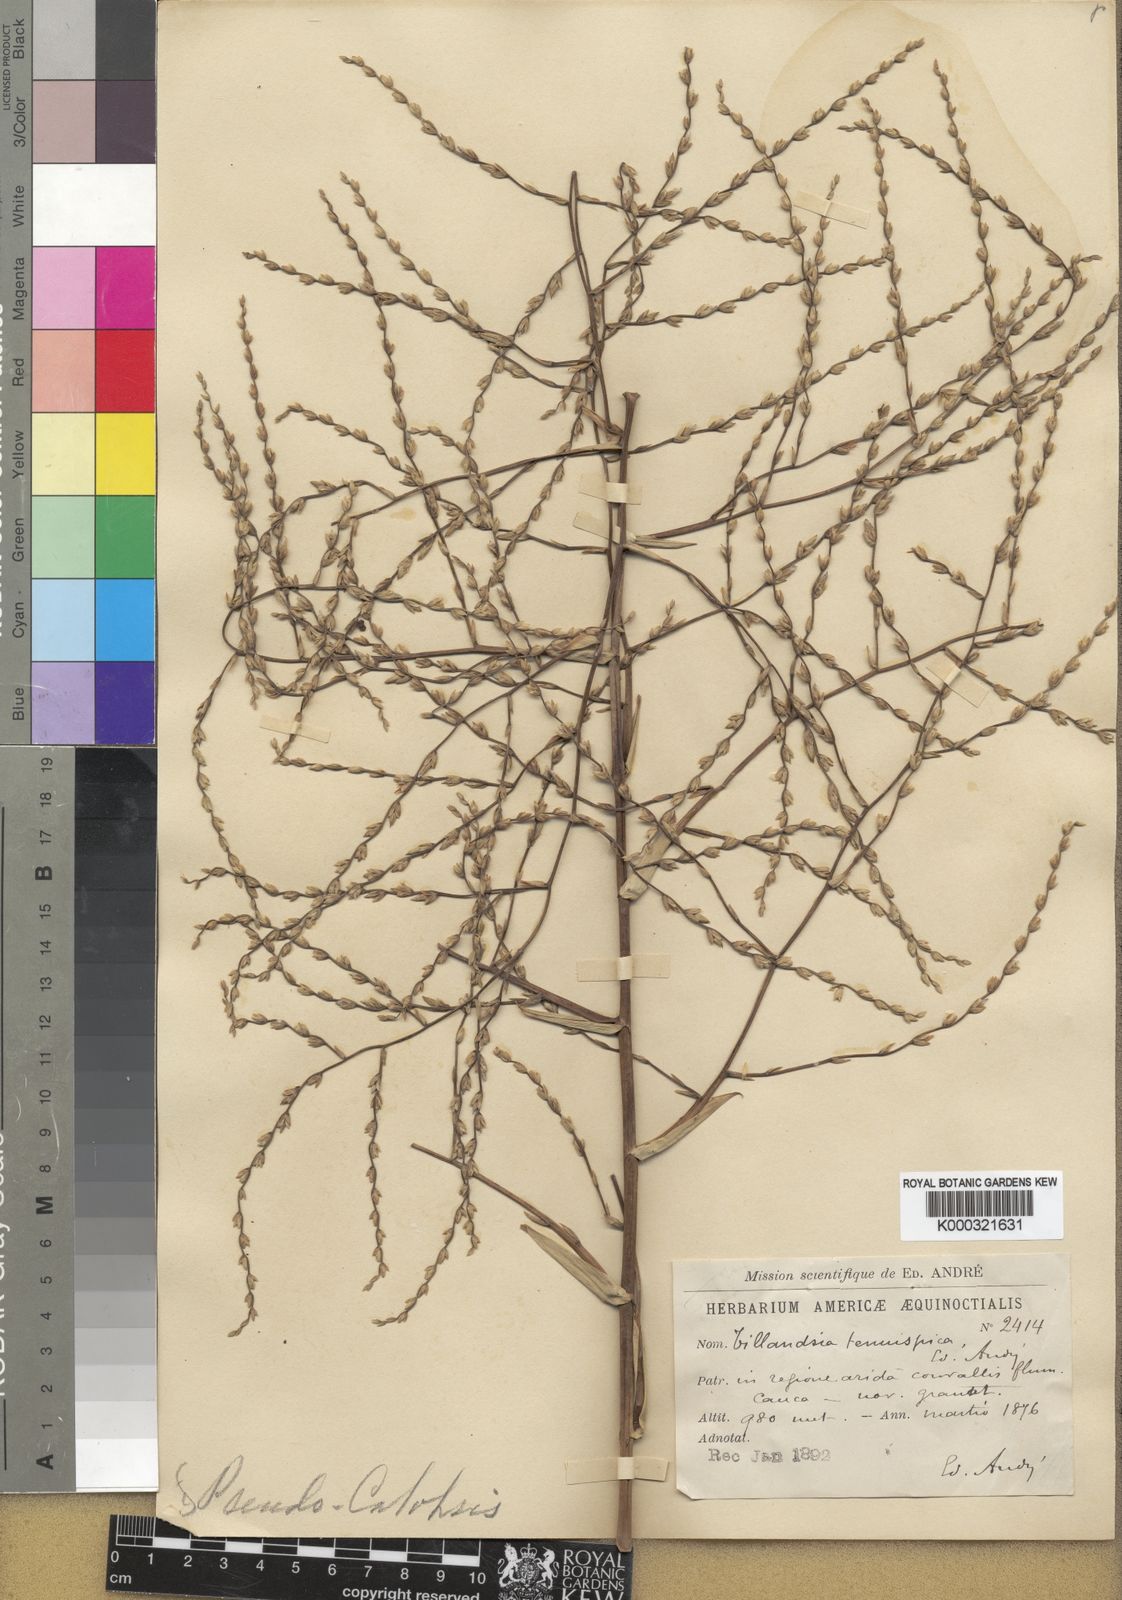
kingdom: Plantae
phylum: Tracheophyta
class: Liliopsida
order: Poales
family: Bromeliaceae
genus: Tillandsia
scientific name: Tillandsia
